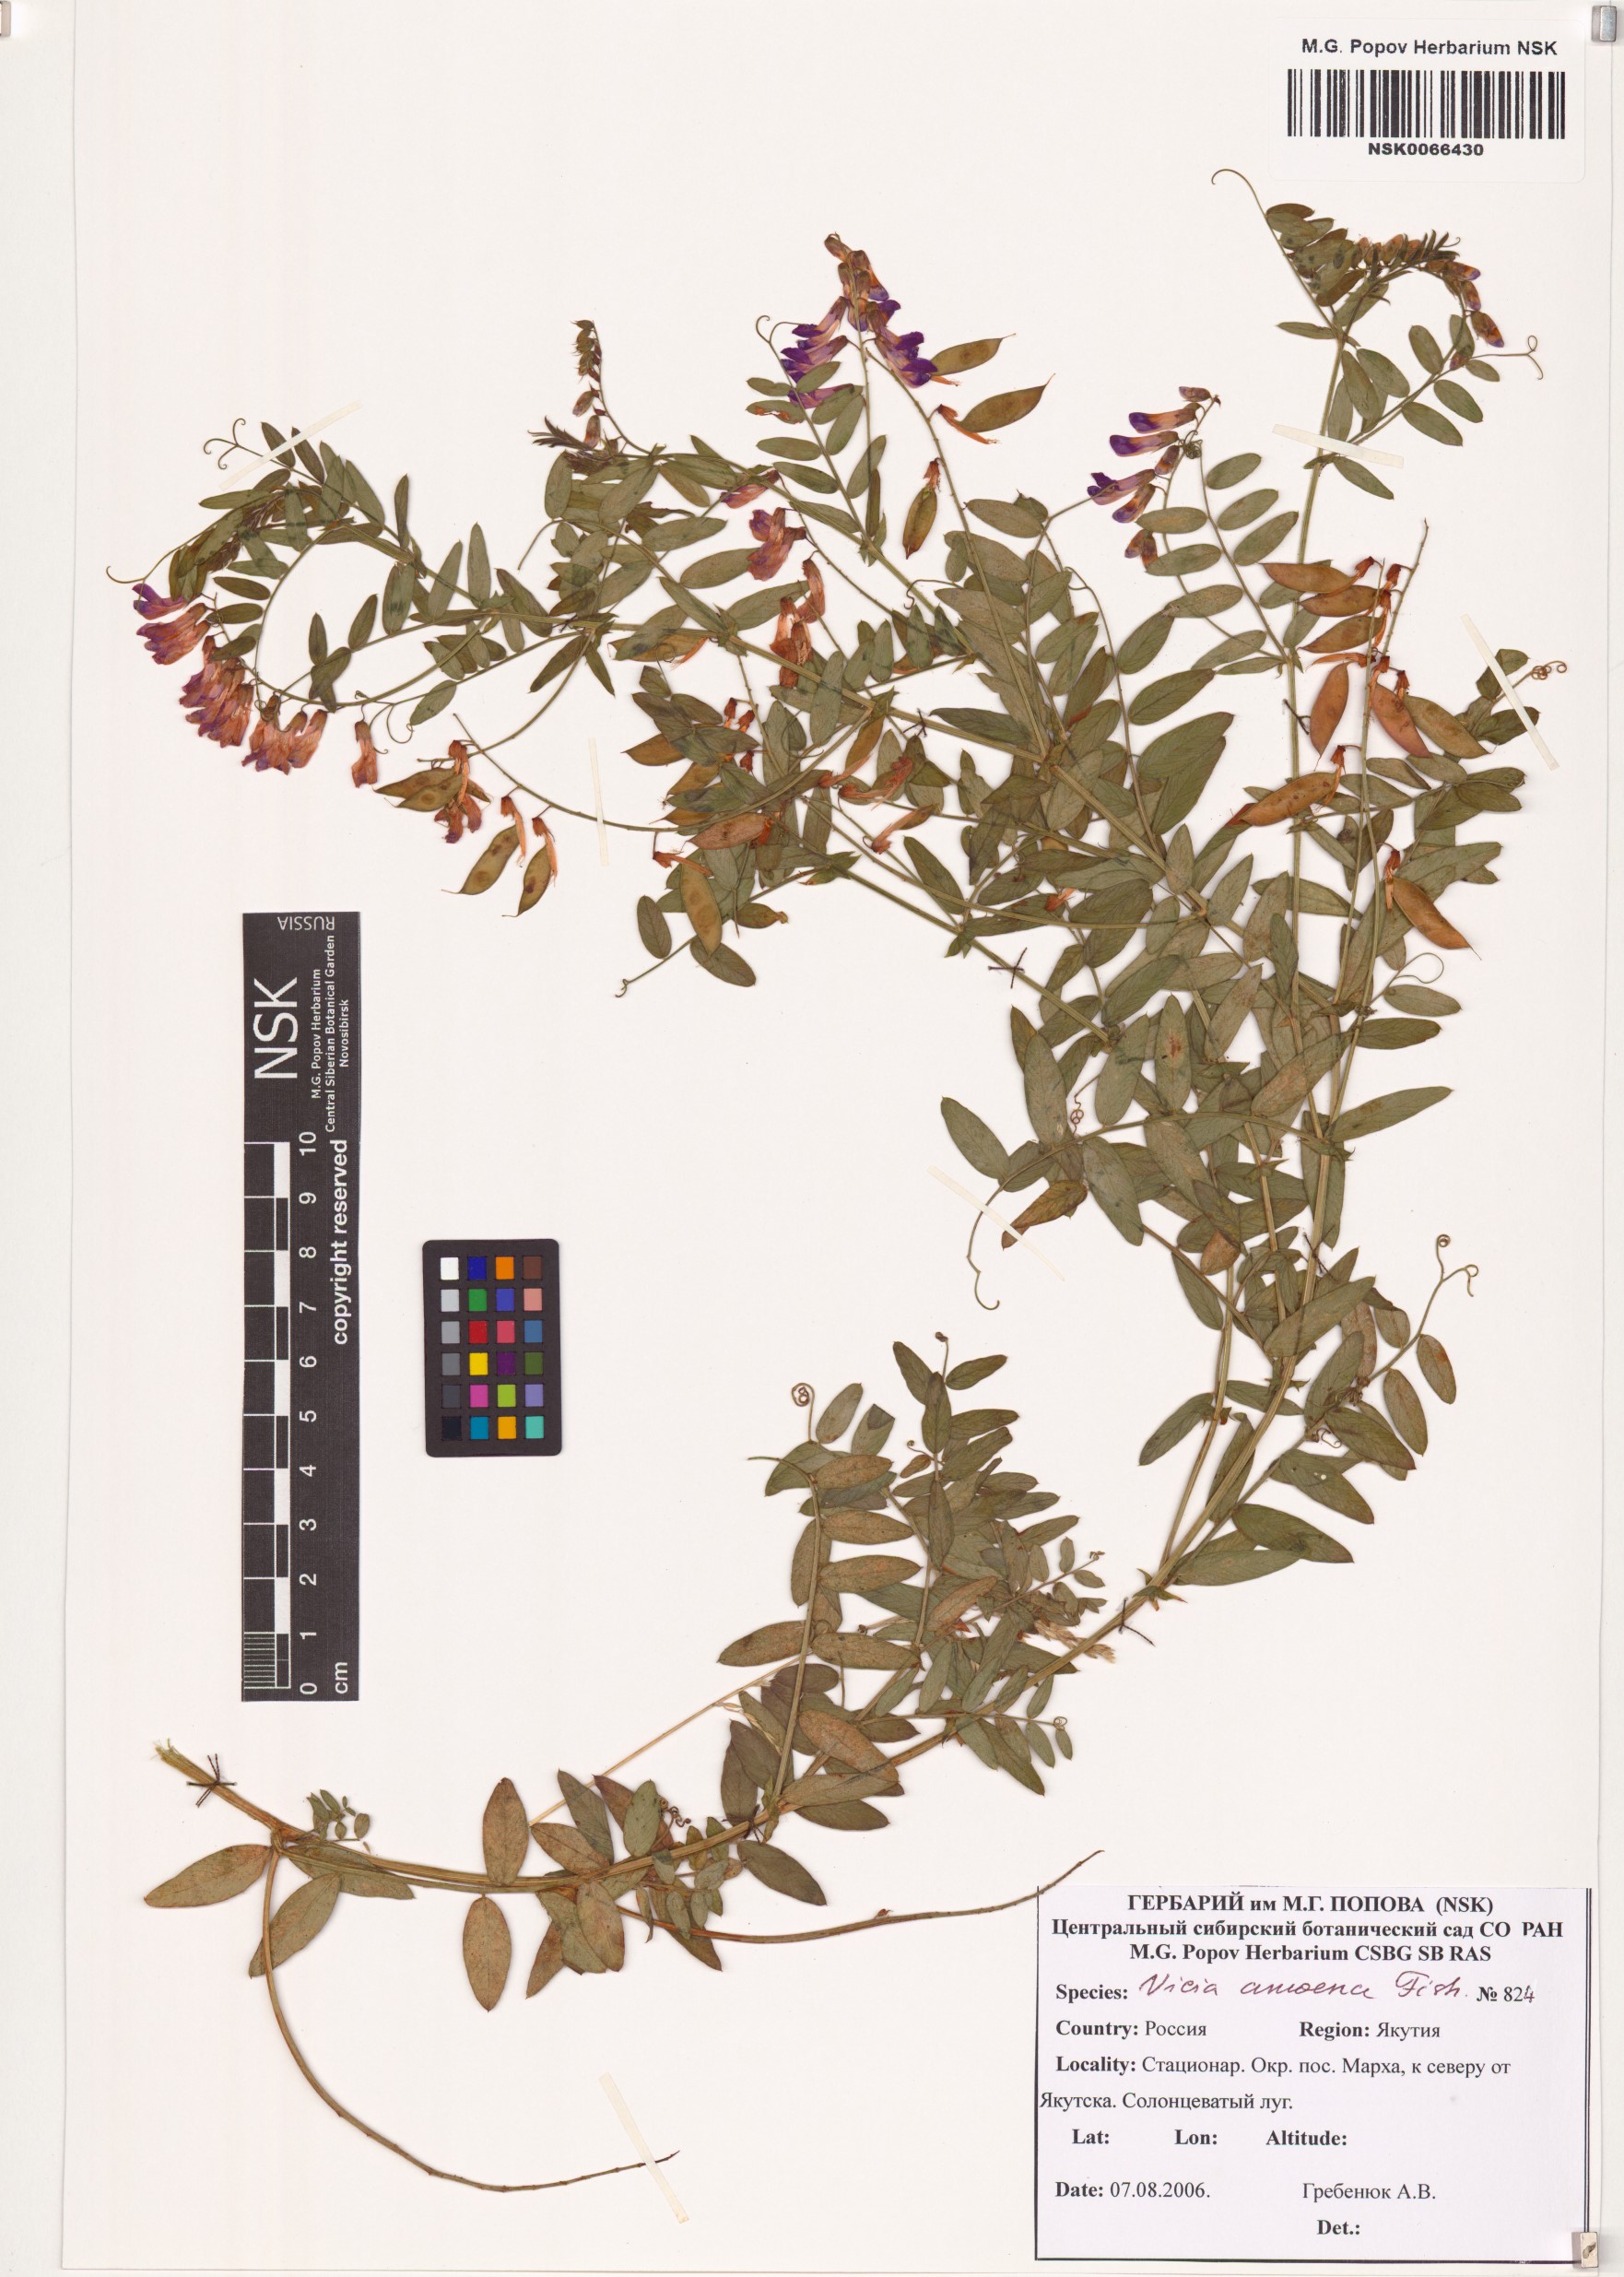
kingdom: Plantae
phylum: Tracheophyta
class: Magnoliopsida
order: Fabales
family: Fabaceae
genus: Vicia
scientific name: Vicia amoena
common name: Cheder ebs
